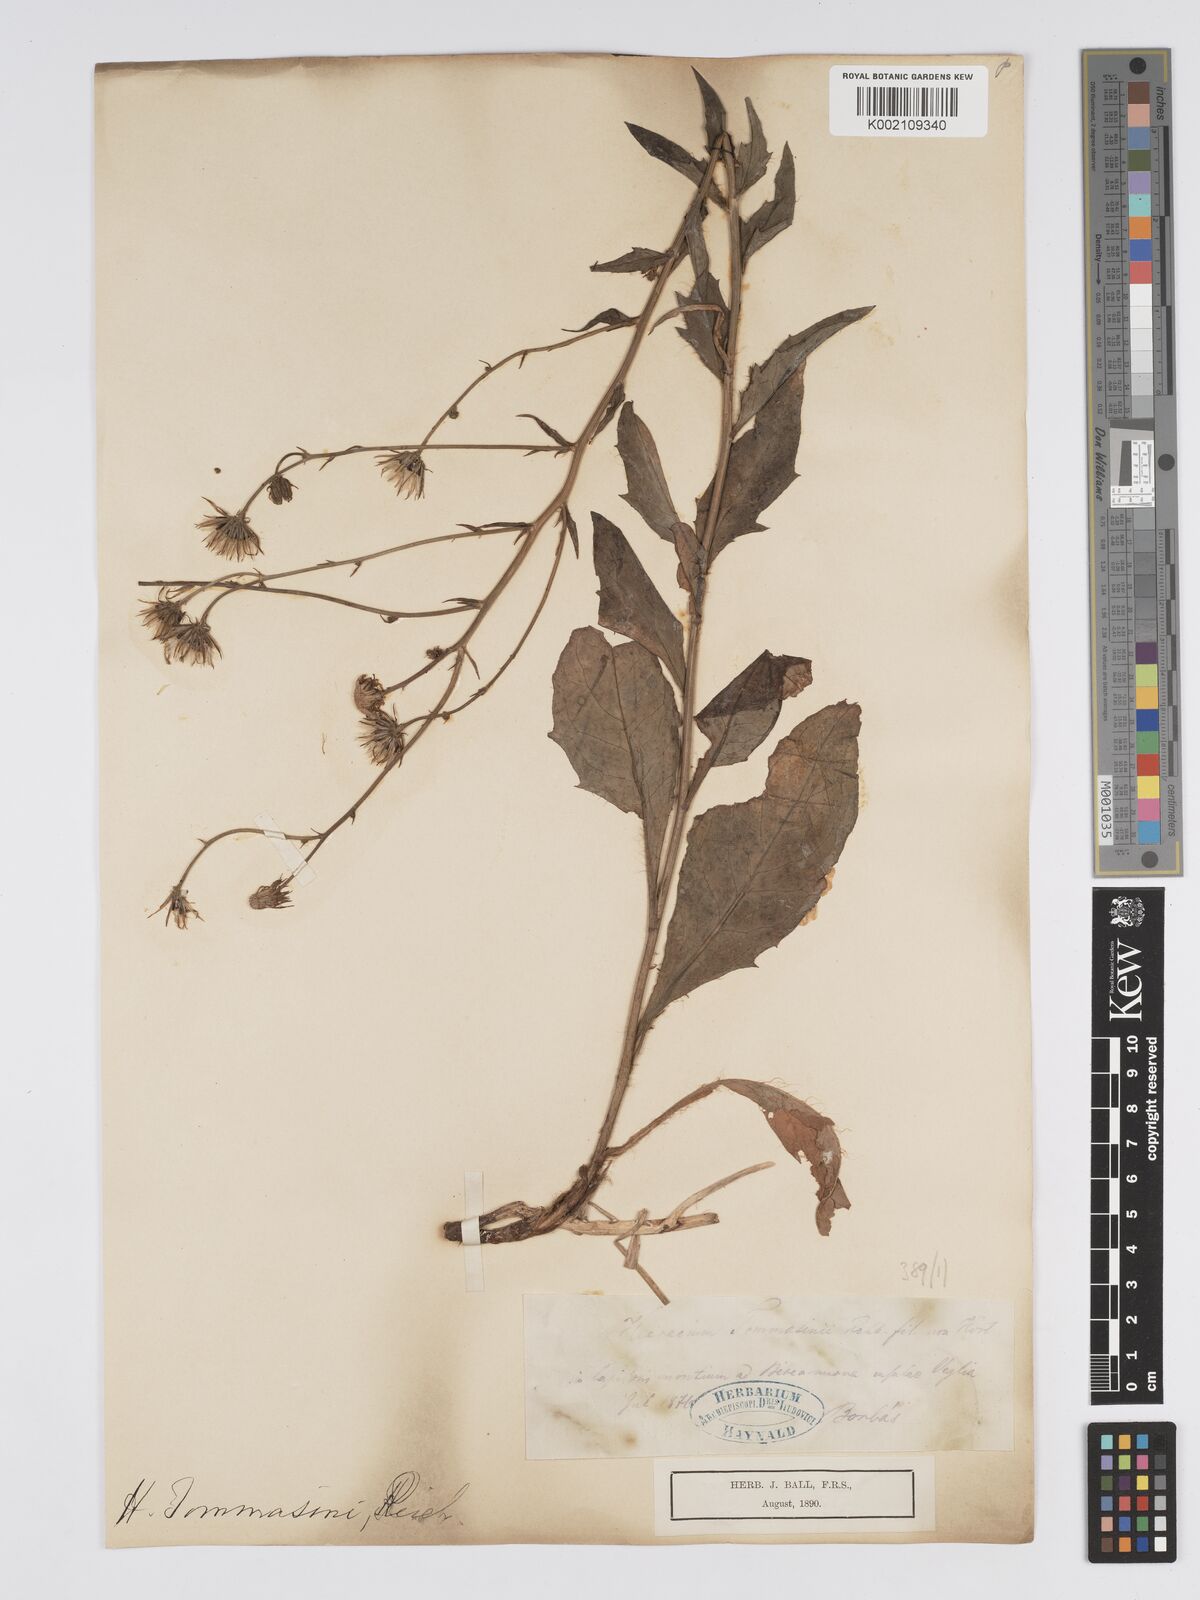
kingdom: Plantae
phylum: Tracheophyta
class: Magnoliopsida
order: Asterales
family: Asteraceae
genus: Hieracium
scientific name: Hieracium tommasinianum
